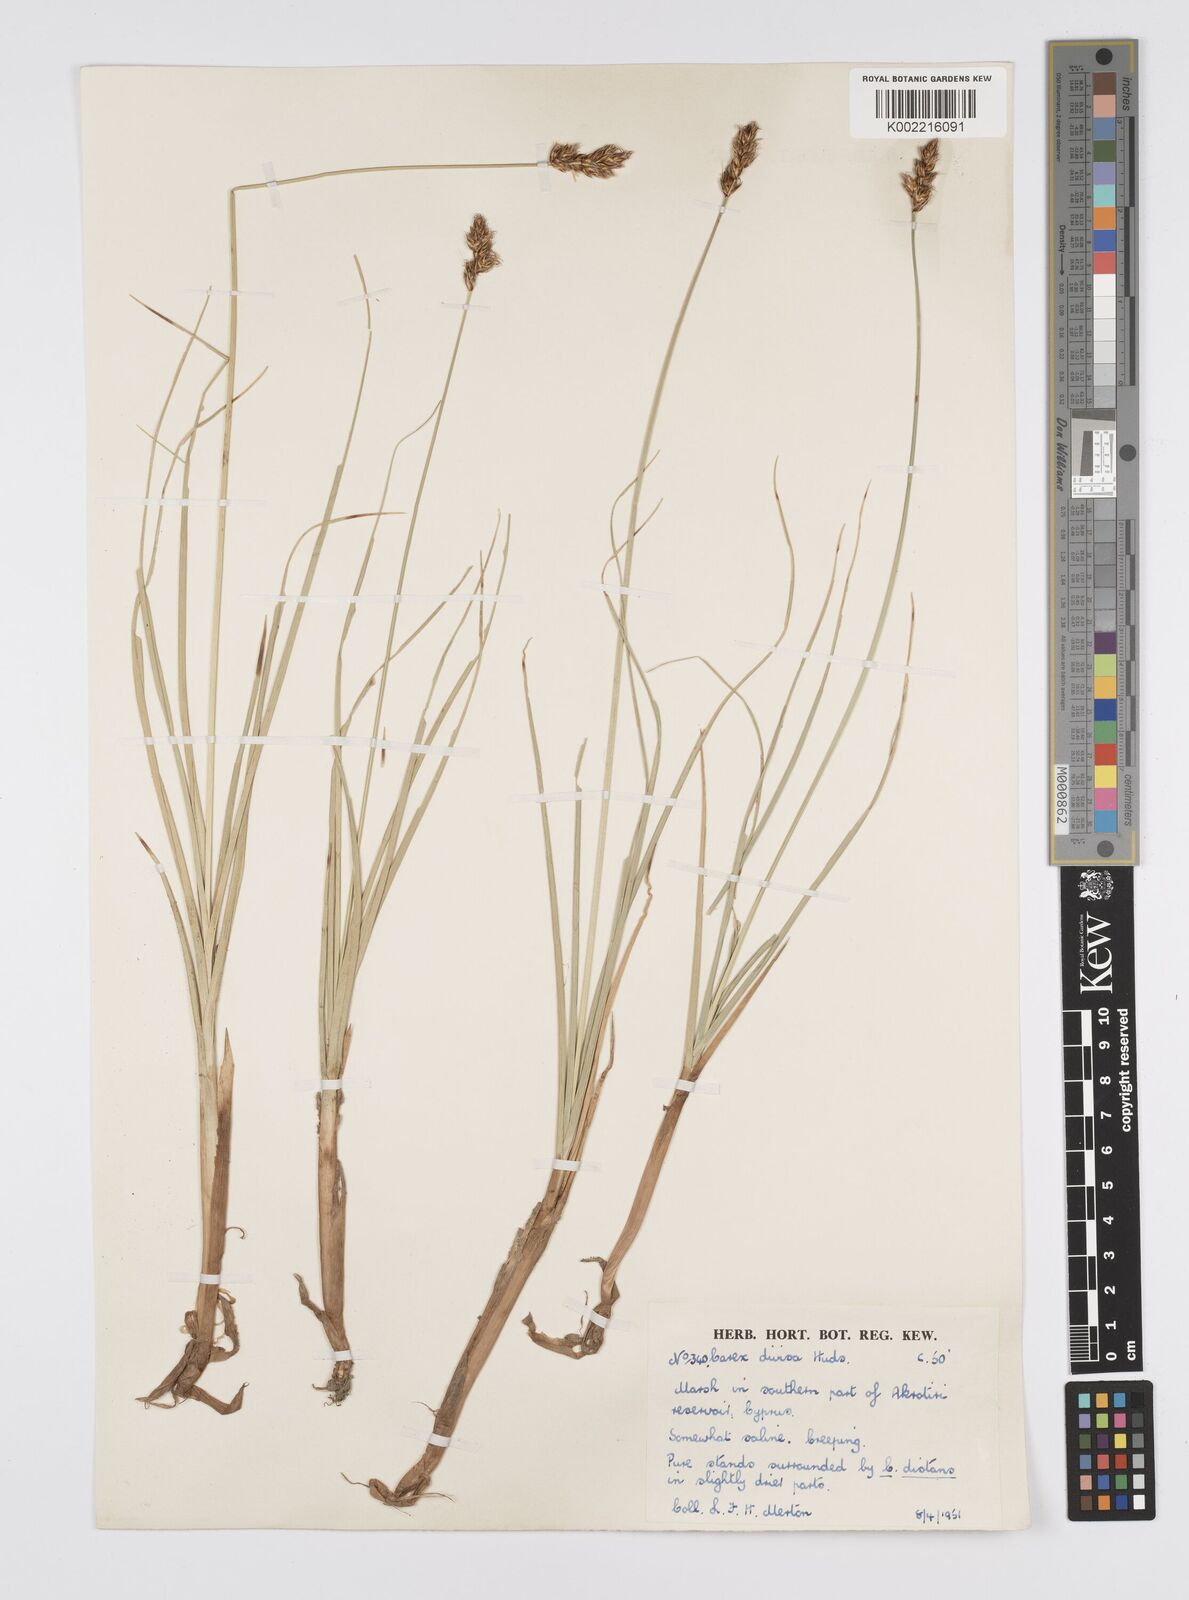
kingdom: Plantae
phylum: Tracheophyta
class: Liliopsida
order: Poales
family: Cyperaceae
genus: Carex
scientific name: Carex divisa
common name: Divided sedge
